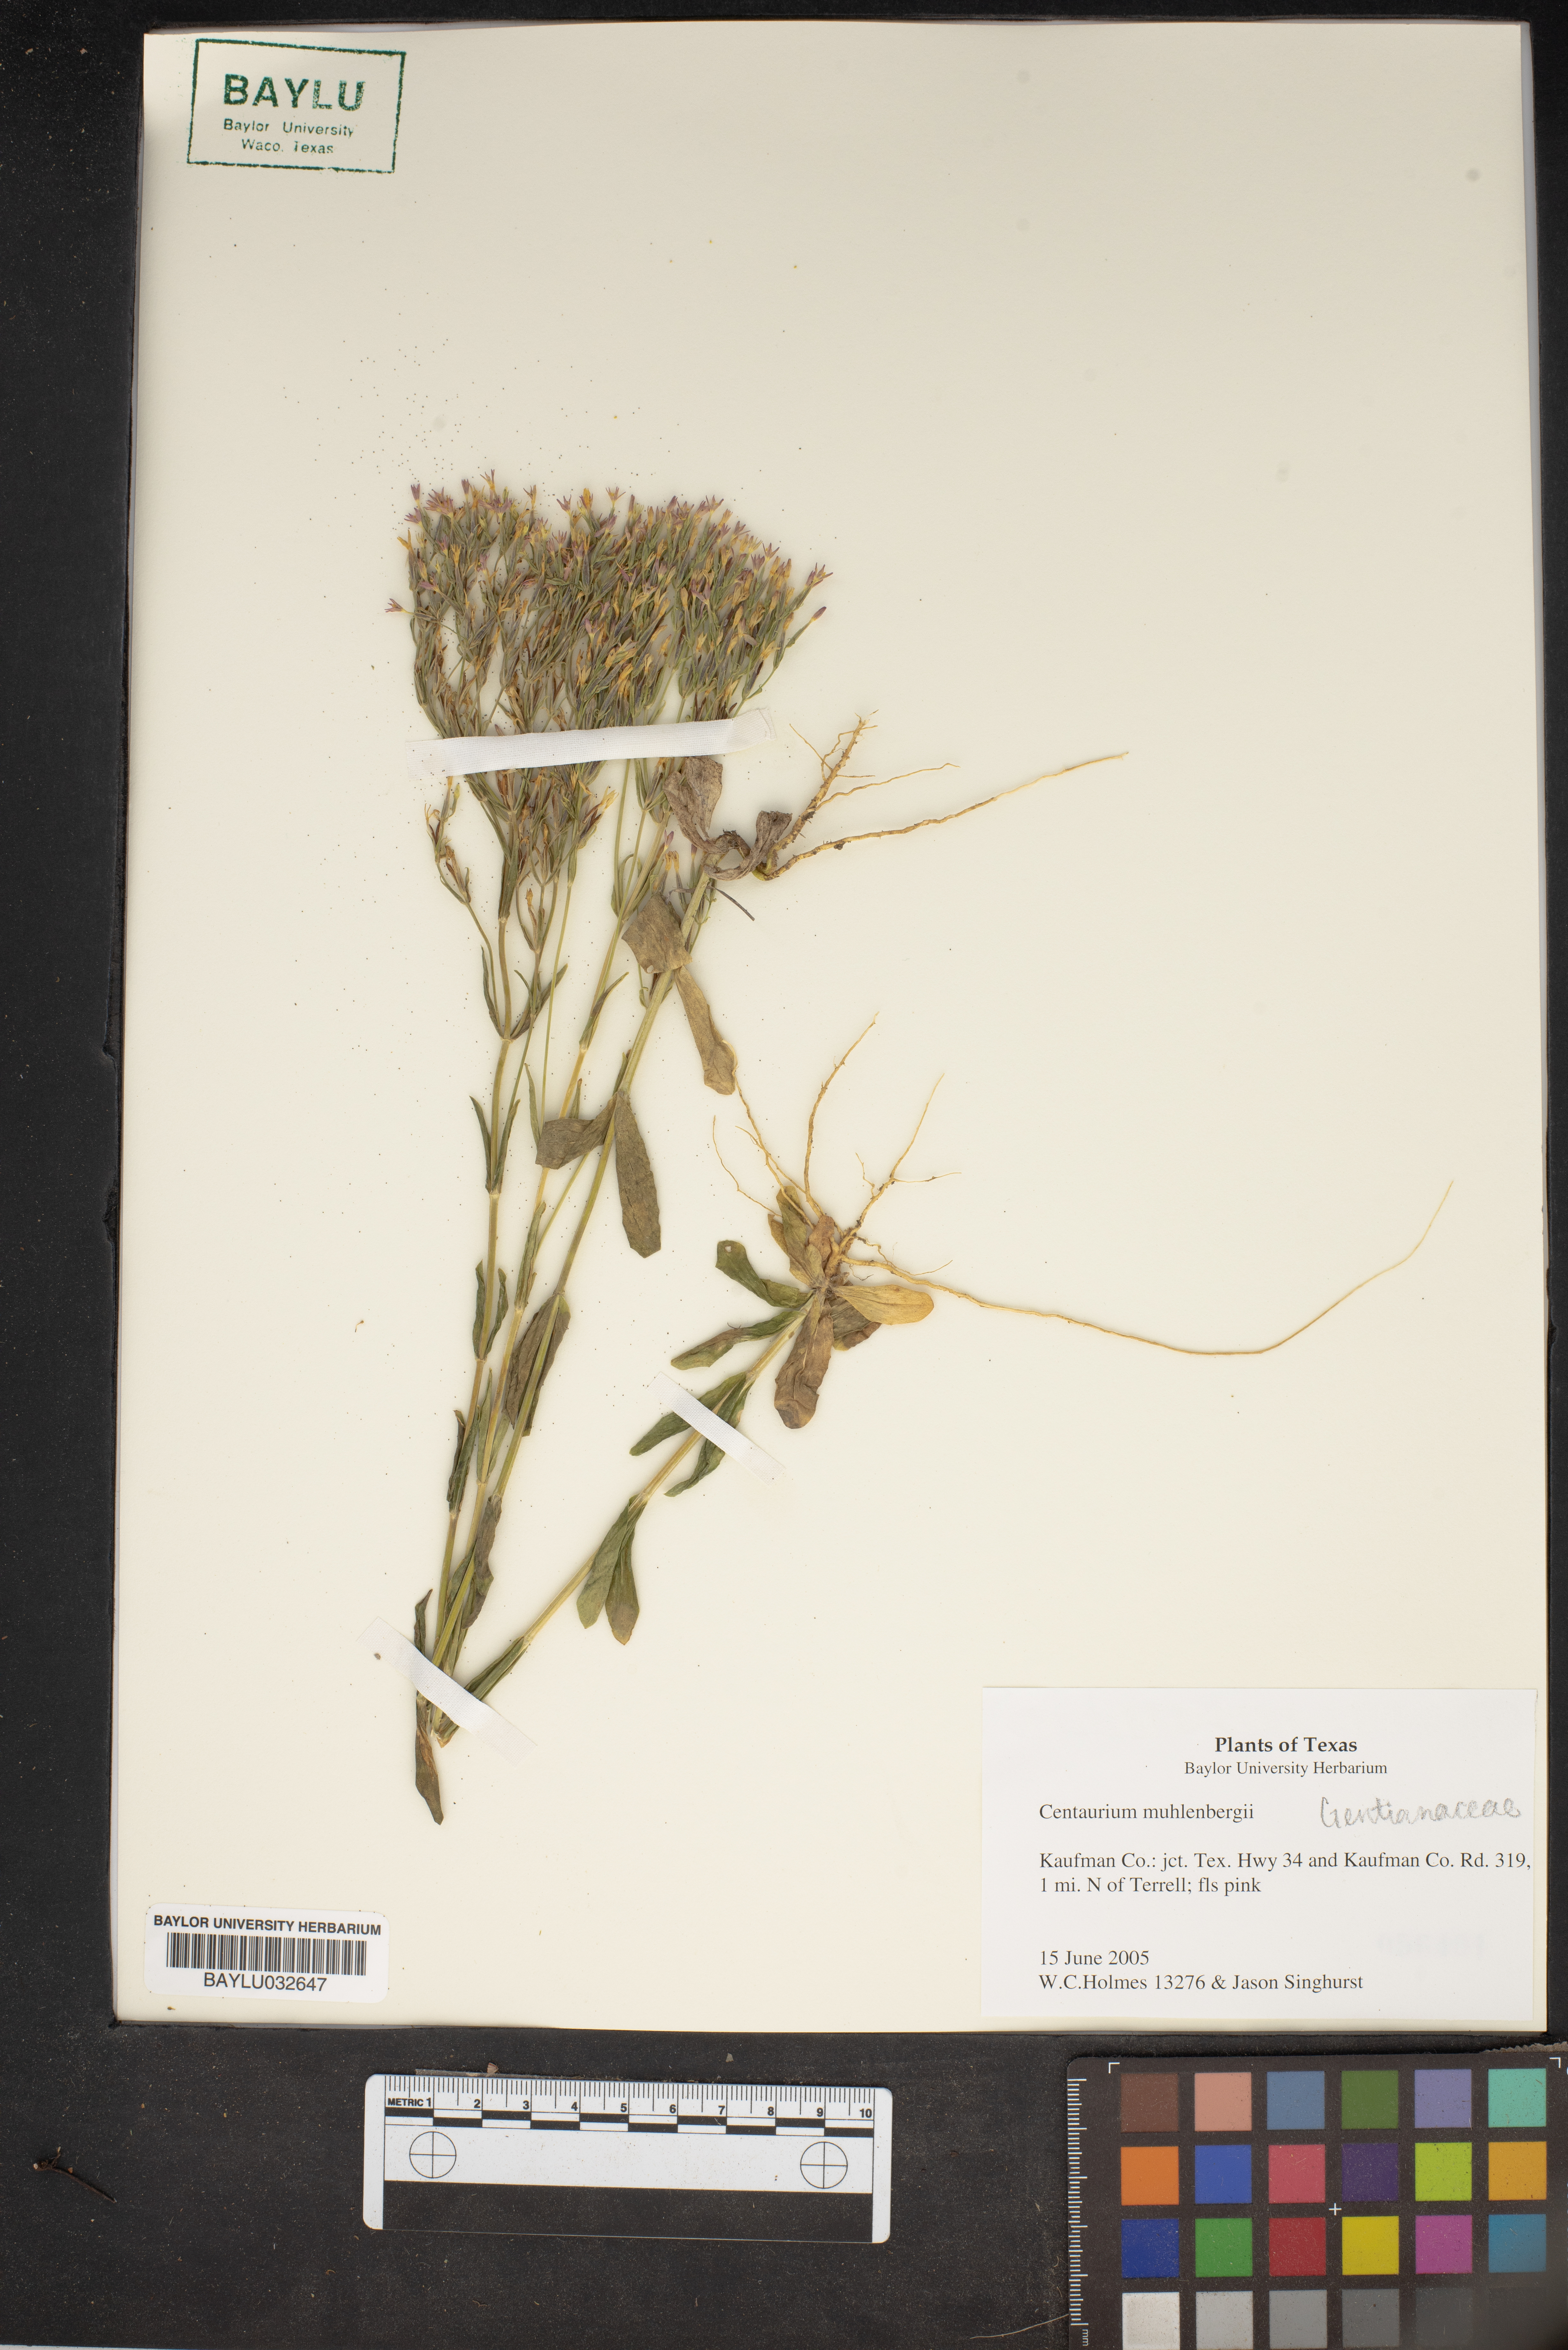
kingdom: Plantae
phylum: Tracheophyta
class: Magnoliopsida
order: Gentianales
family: Gentianaceae
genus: Zeltnera
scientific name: Zeltnera muhlenbergii
